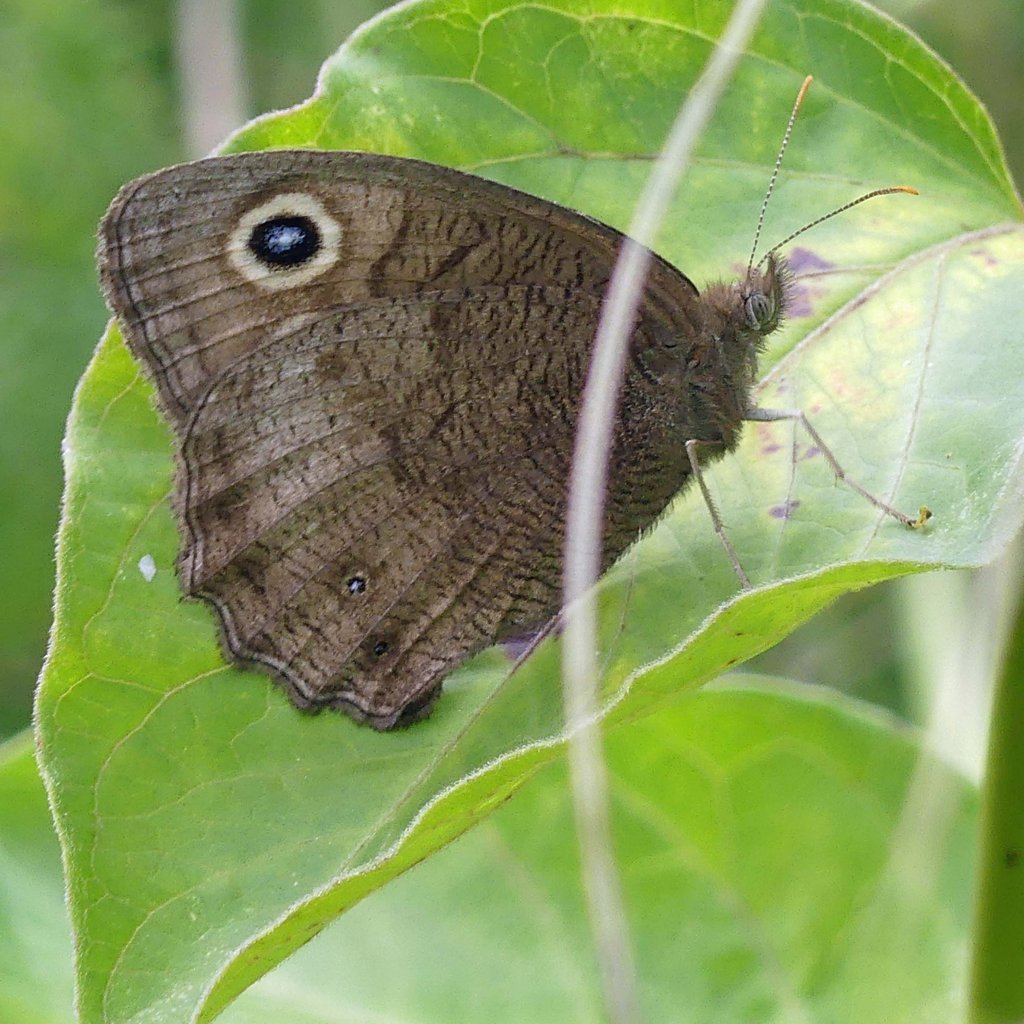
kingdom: Animalia
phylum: Arthropoda
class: Insecta
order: Lepidoptera
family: Nymphalidae
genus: Cercyonis
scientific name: Cercyonis pegala
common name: Common Wood-Nymph
